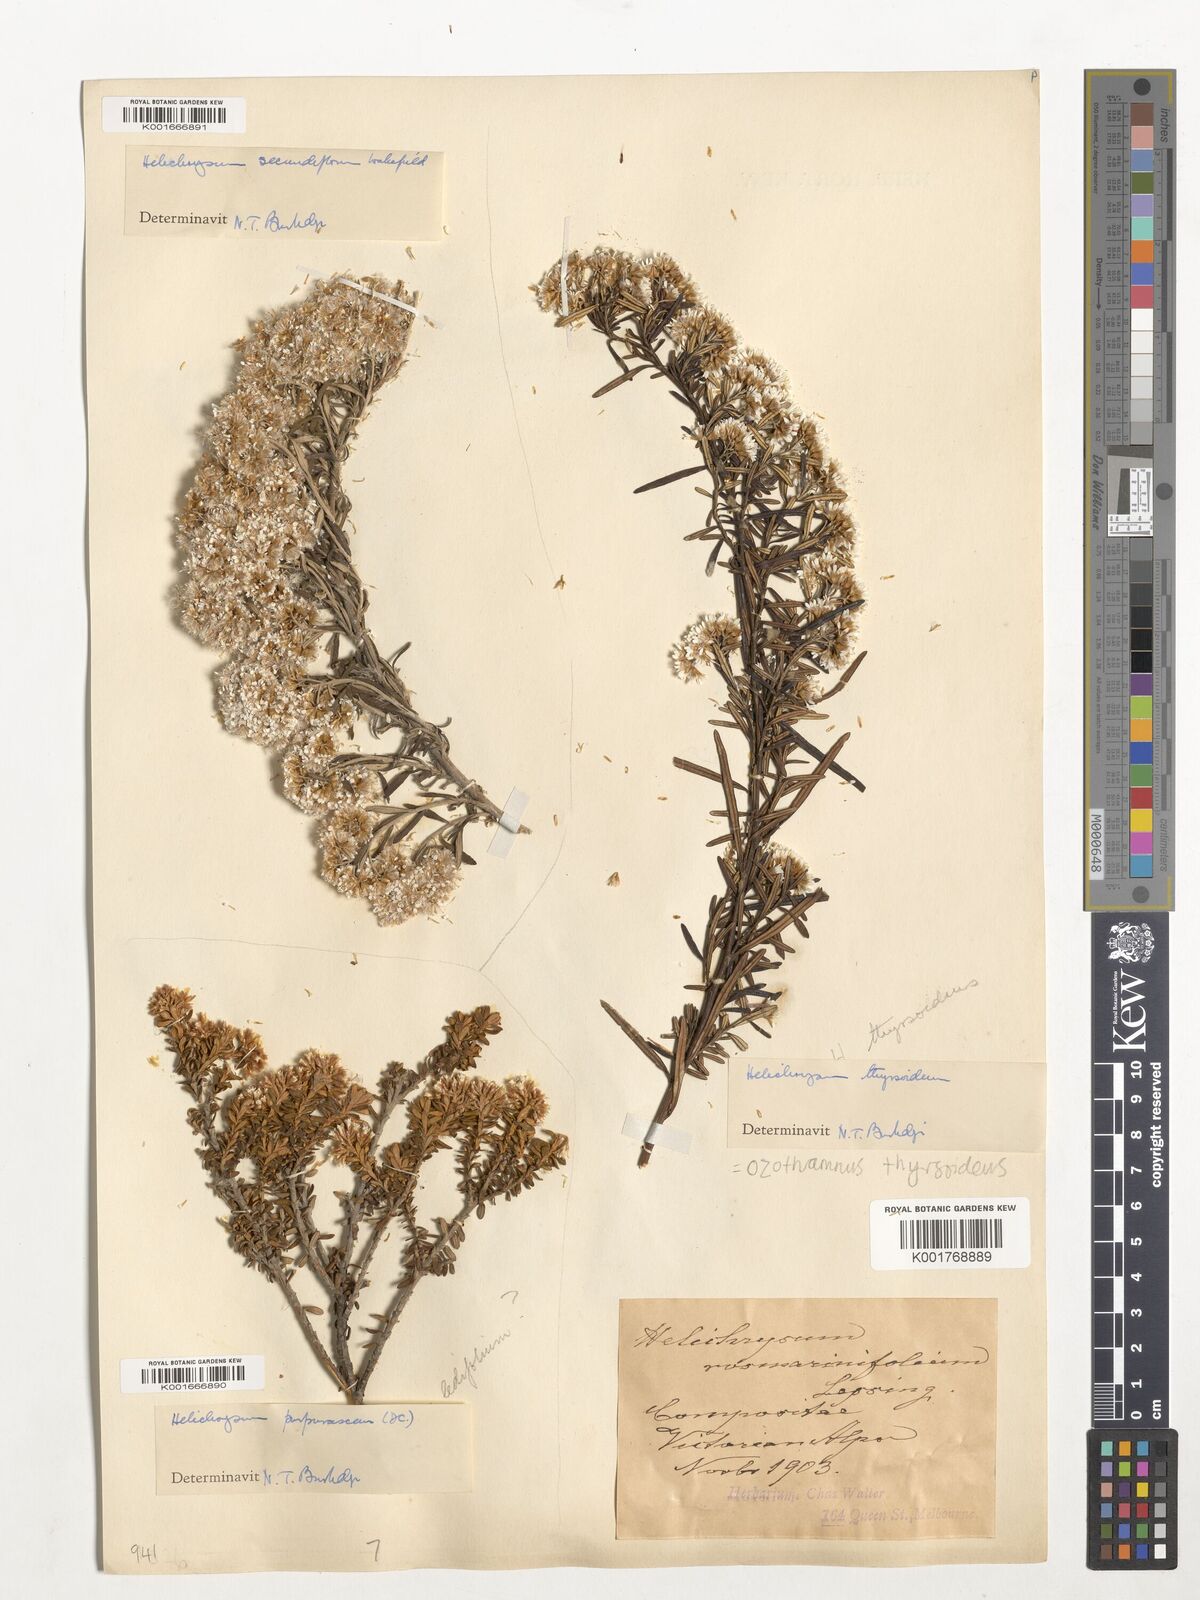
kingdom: Plantae
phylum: Tracheophyta
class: Magnoliopsida
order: Asterales
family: Asteraceae
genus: Ozothamnus
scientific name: Ozothamnus purpurascens
